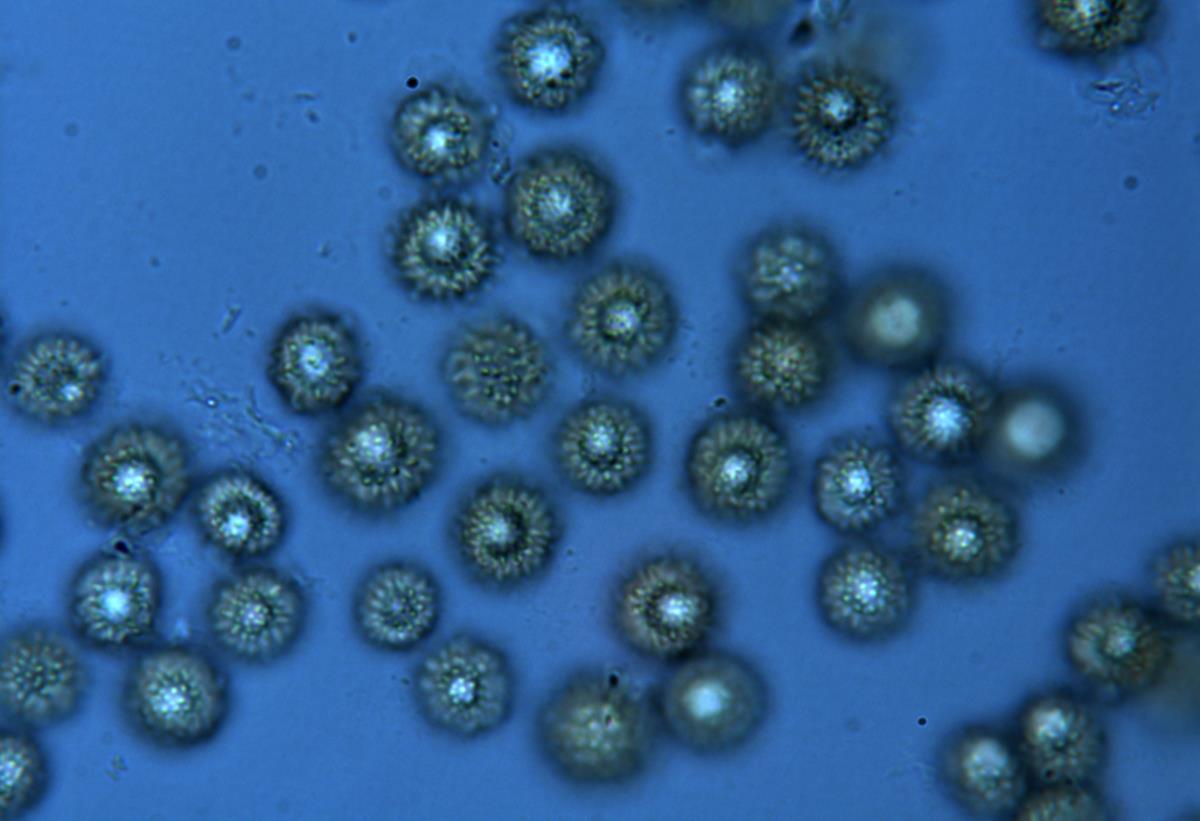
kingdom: Fungi
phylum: Basidiomycota
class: Agaricomycetes
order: Boletales
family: Sclerodermataceae
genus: Pisolithus
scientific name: Pisolithus albus
